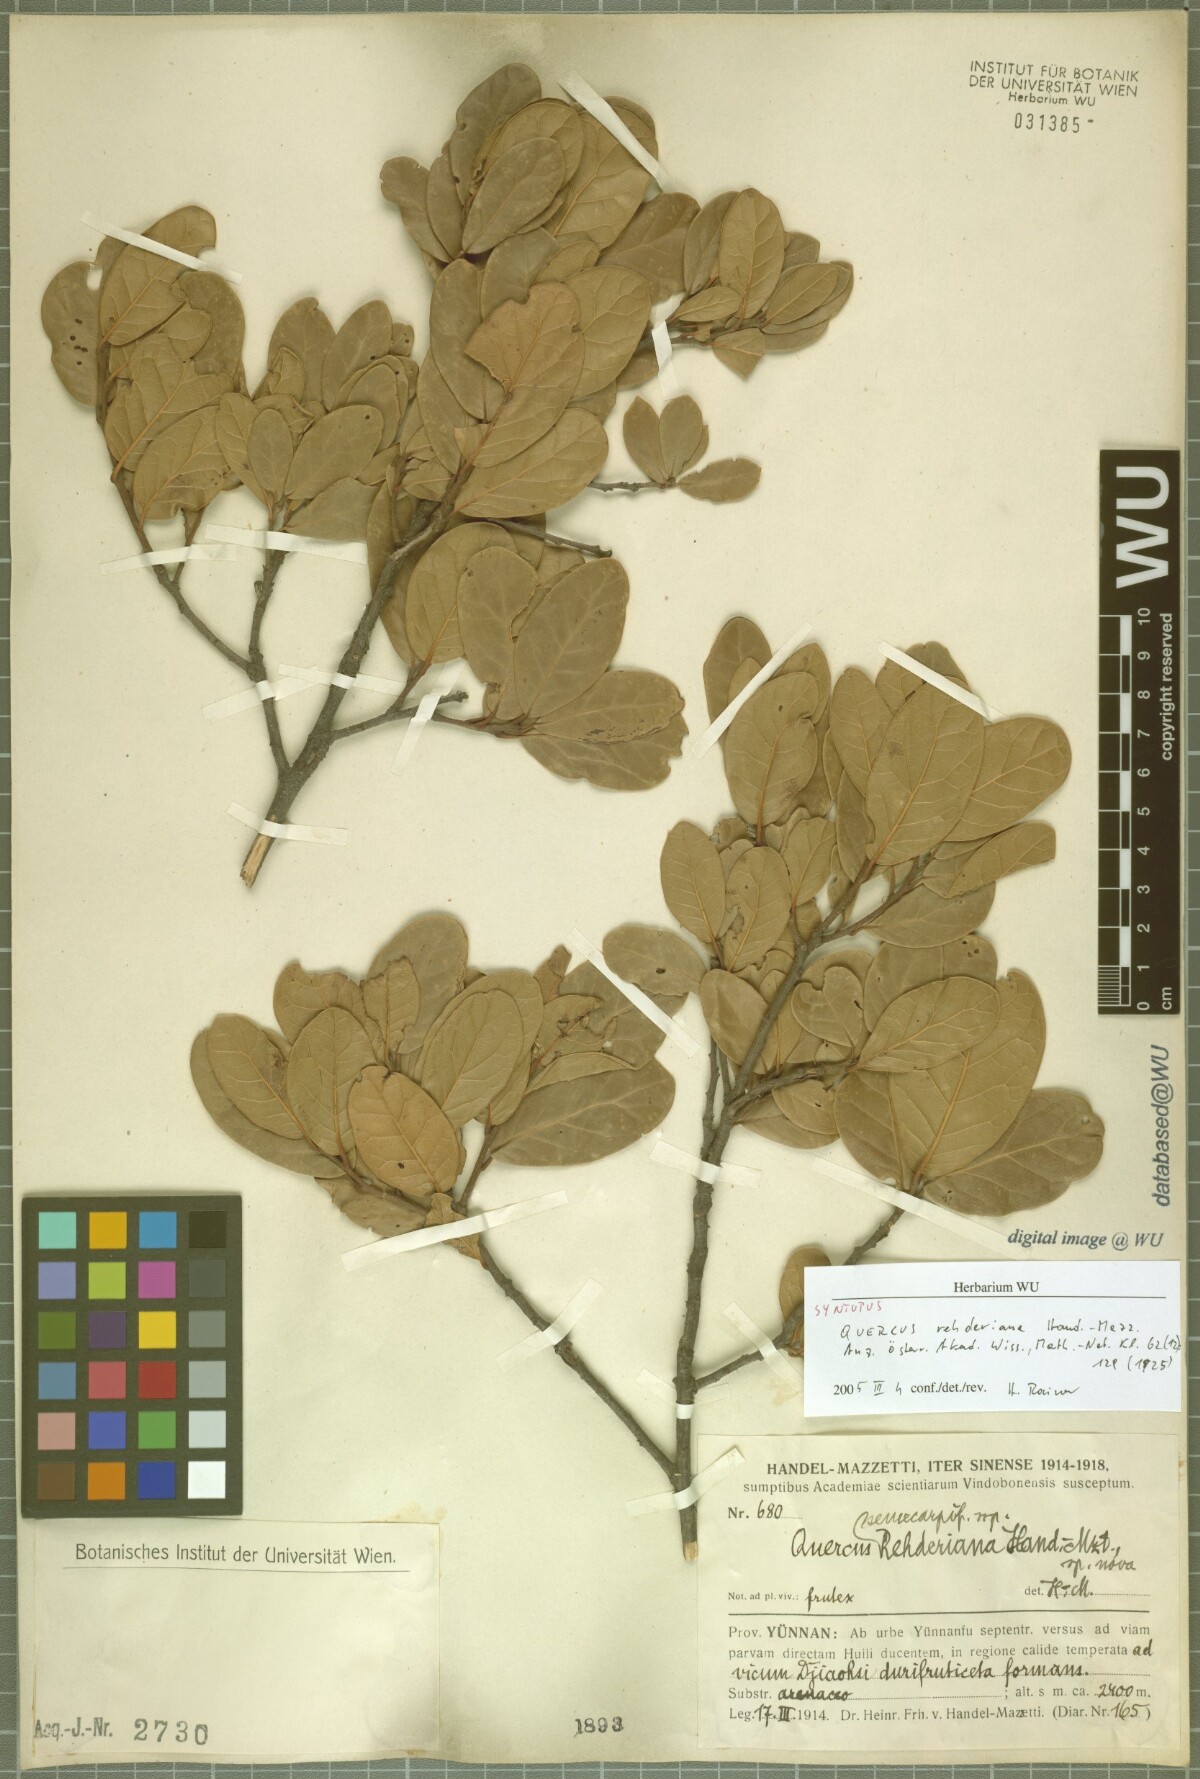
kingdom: Plantae
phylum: Tracheophyta
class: Magnoliopsida
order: Fagales
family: Fagaceae
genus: Quercus
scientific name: Quercus rehderiana
